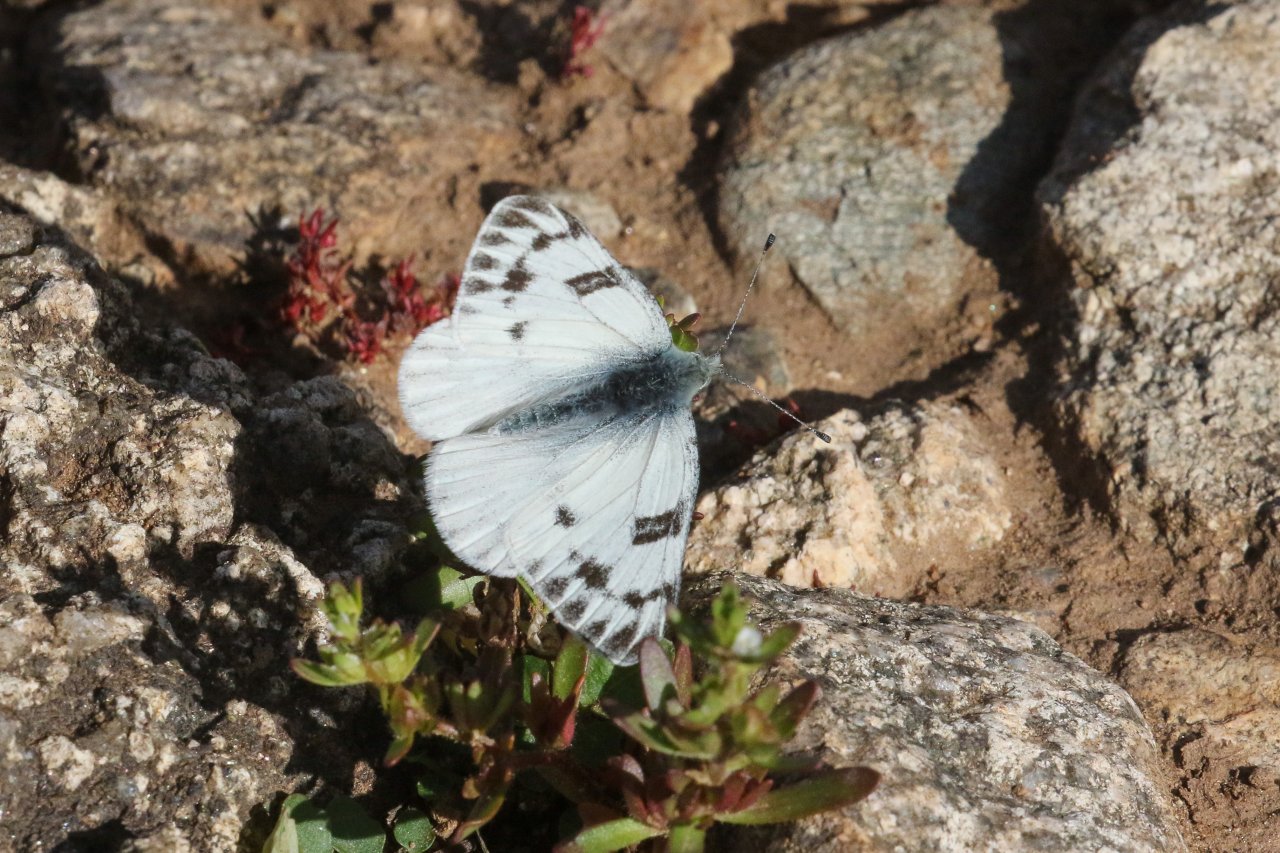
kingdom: Animalia
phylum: Arthropoda
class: Insecta
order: Lepidoptera
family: Pieridae
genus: Pontia
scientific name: Pontia occidentalis
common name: Western White
